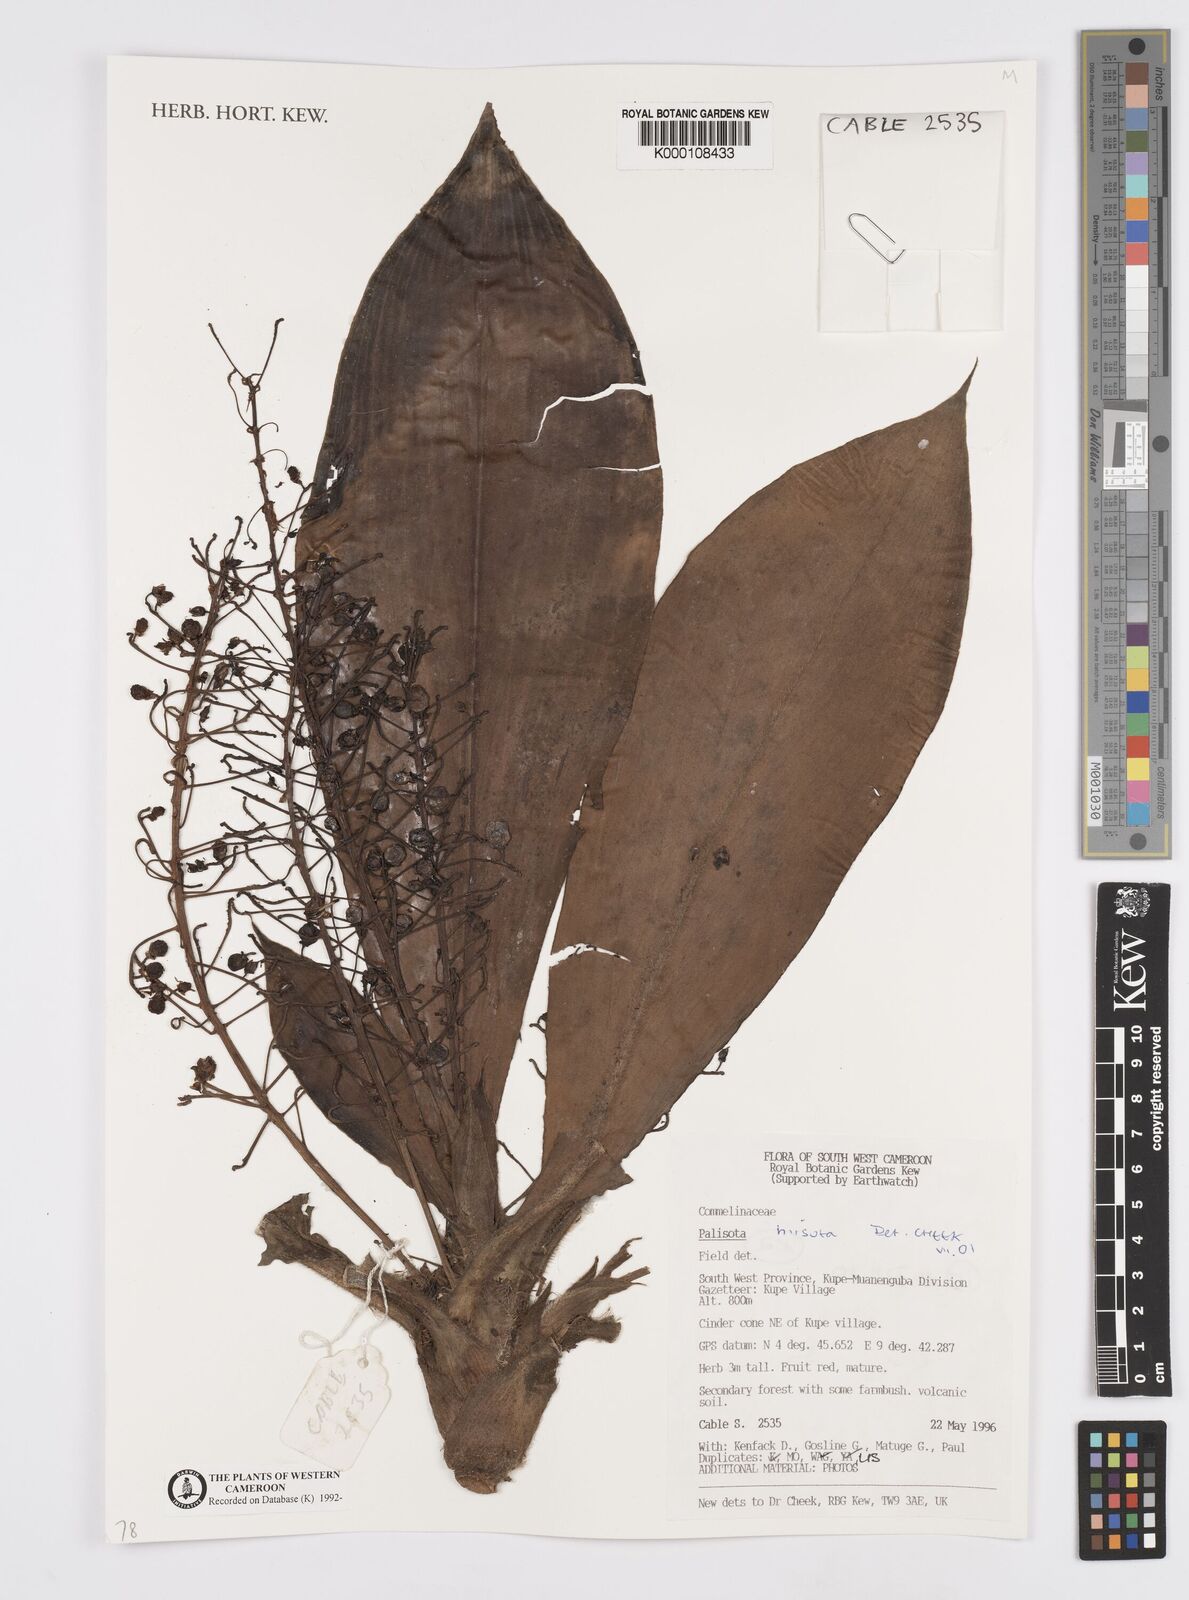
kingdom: Plantae
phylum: Tracheophyta
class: Liliopsida
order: Commelinales
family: Commelinaceae
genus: Palisota
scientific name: Palisota hirsuta
